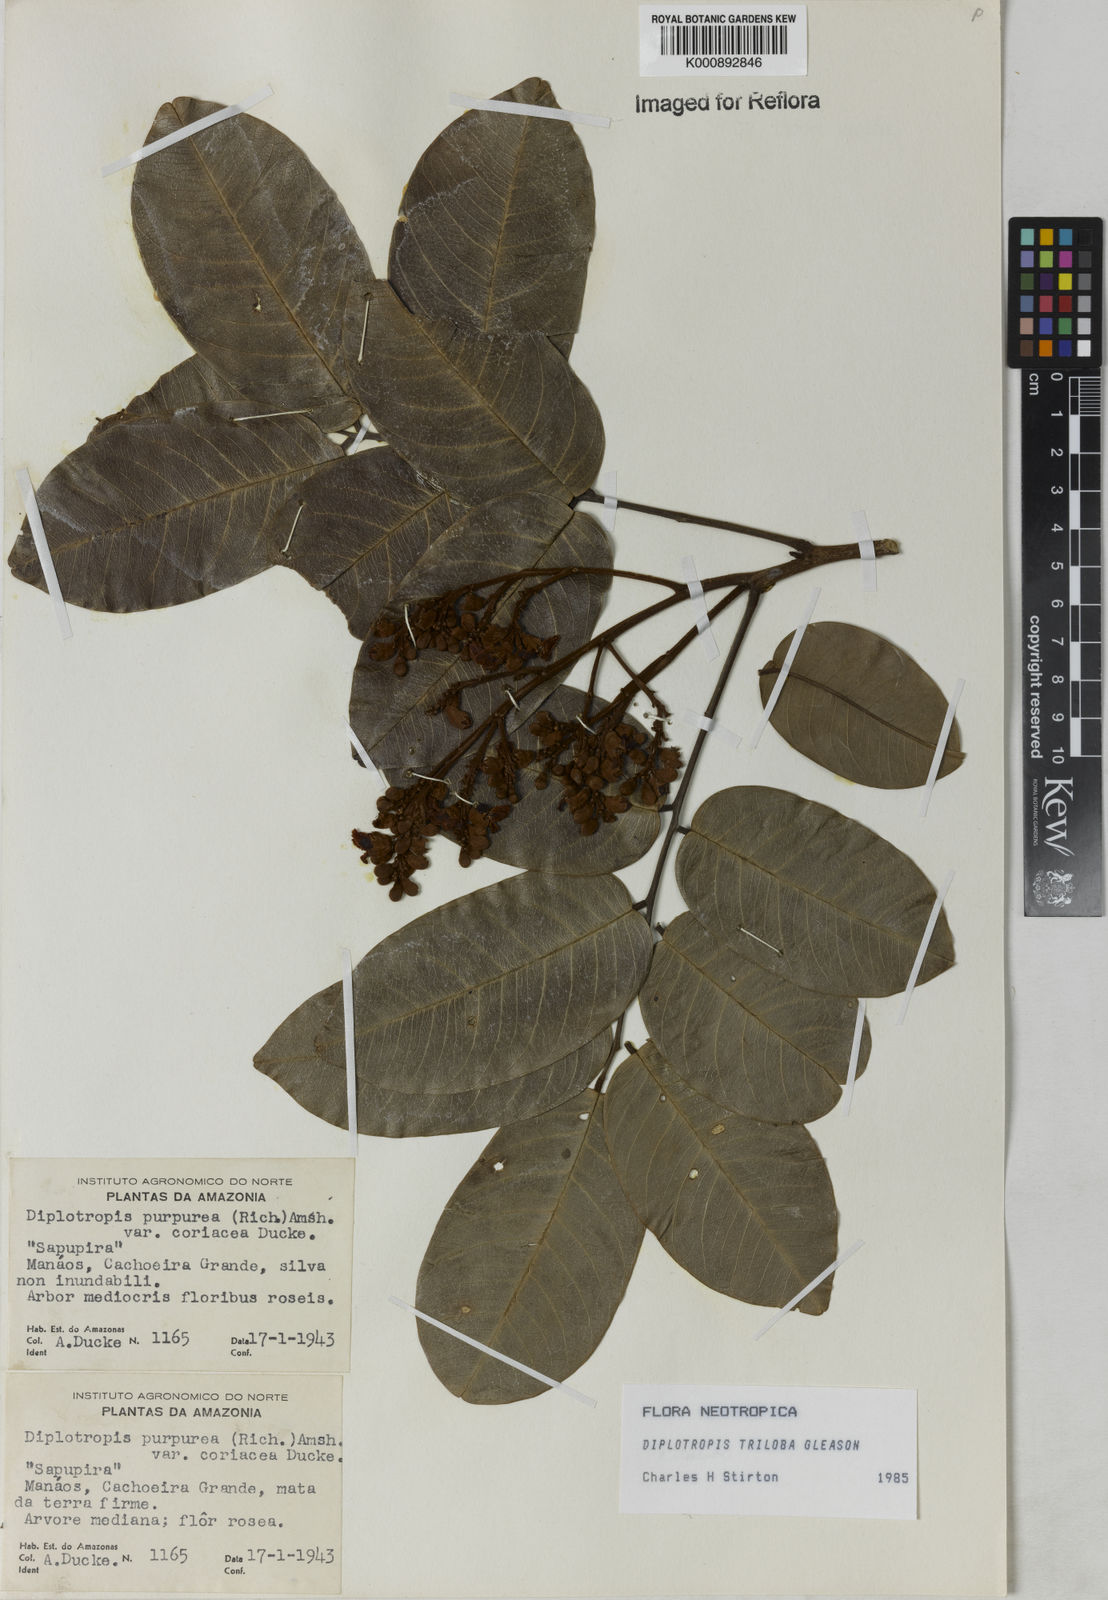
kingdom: Plantae
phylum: Tracheophyta
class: Magnoliopsida
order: Fabales
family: Fabaceae
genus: Diplotropis
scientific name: Diplotropis triloba
